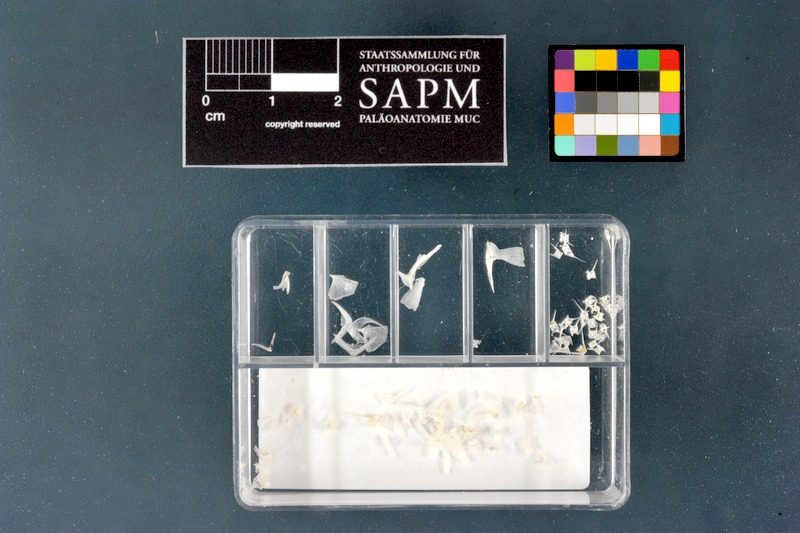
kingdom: Animalia
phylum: Chordata
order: Gasterosteiformes
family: Gasterosteidae
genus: Gasterosteus
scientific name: Gasterosteus aculeatus
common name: Three-spined stickleback
